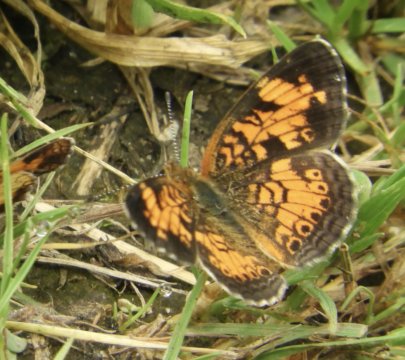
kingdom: Animalia
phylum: Arthropoda
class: Insecta
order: Lepidoptera
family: Nymphalidae
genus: Phyciodes
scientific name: Phyciodes
